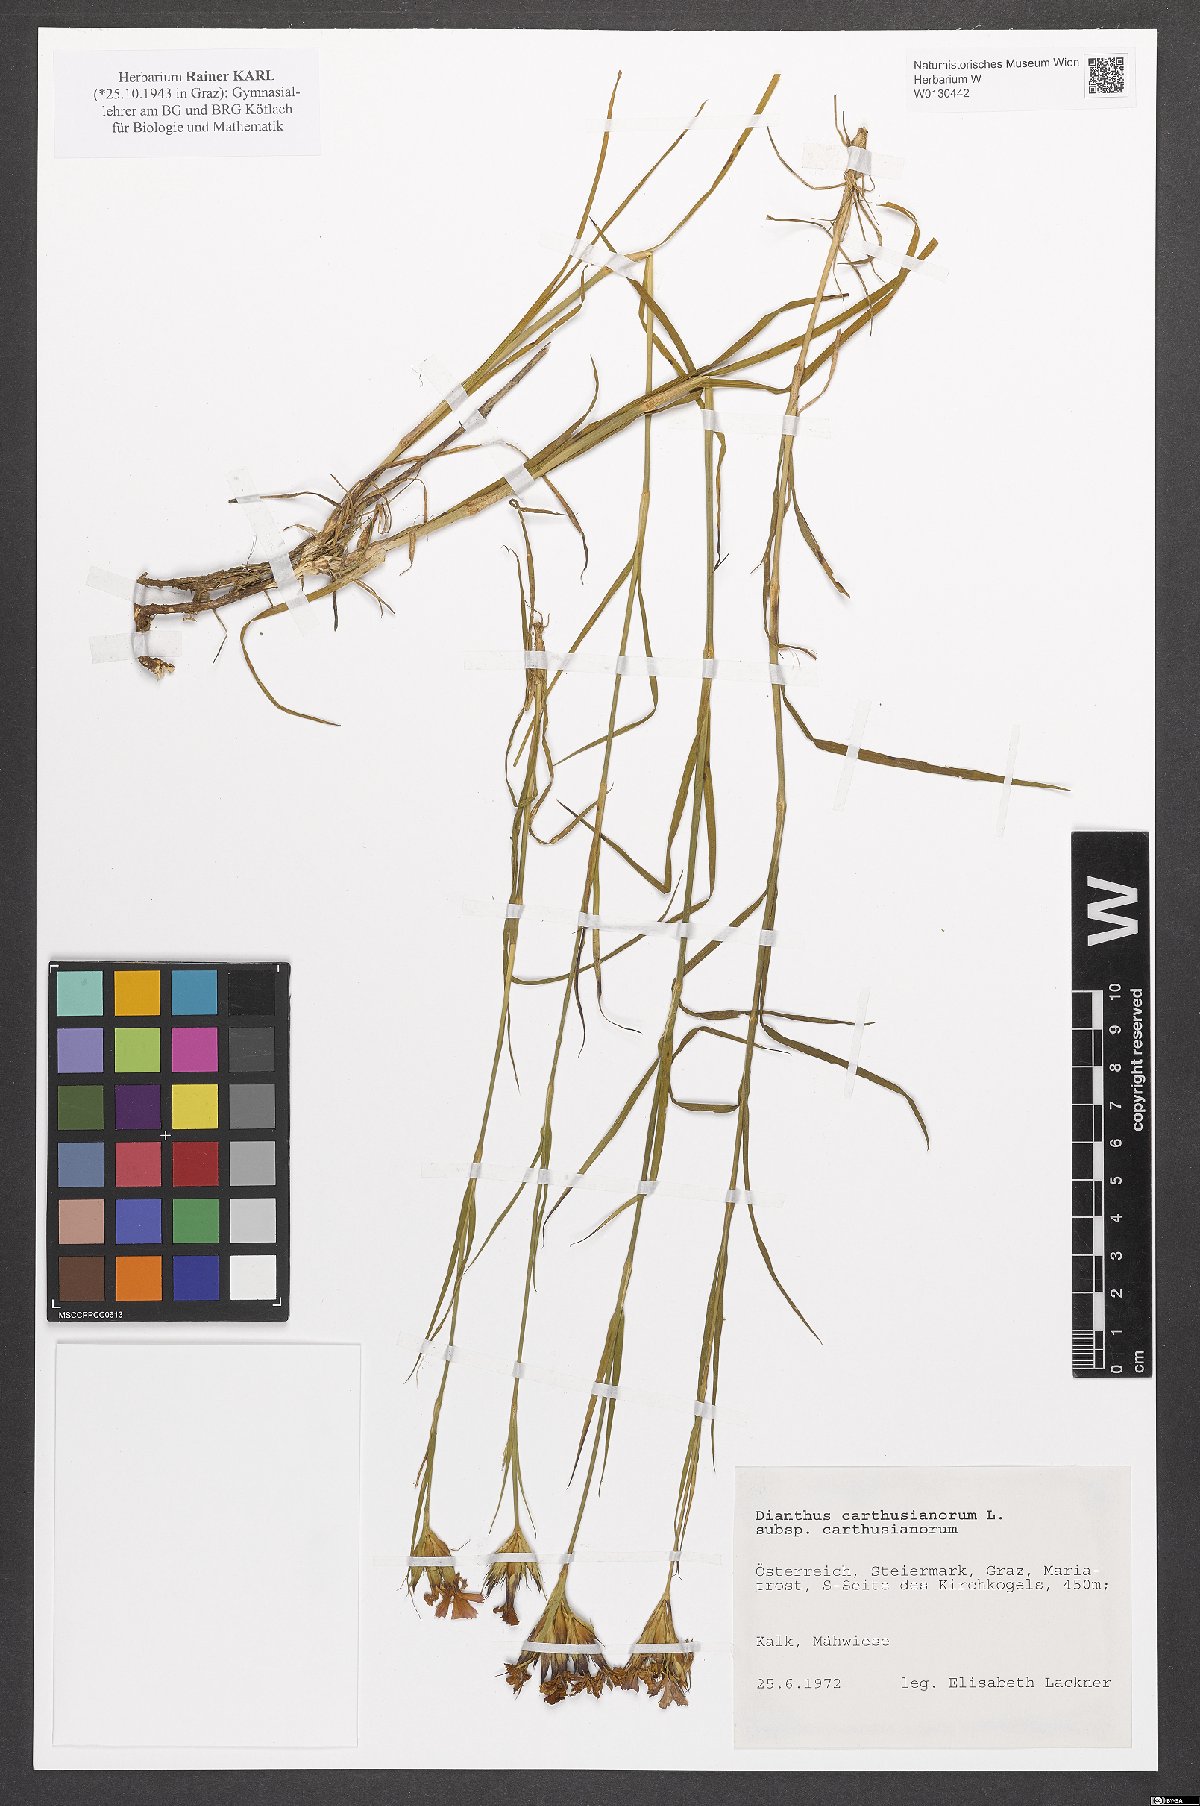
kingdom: Plantae
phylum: Tracheophyta
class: Magnoliopsida
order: Caryophyllales
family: Caryophyllaceae
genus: Dianthus
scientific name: Dianthus carthusianorum
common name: Carthusian pink
